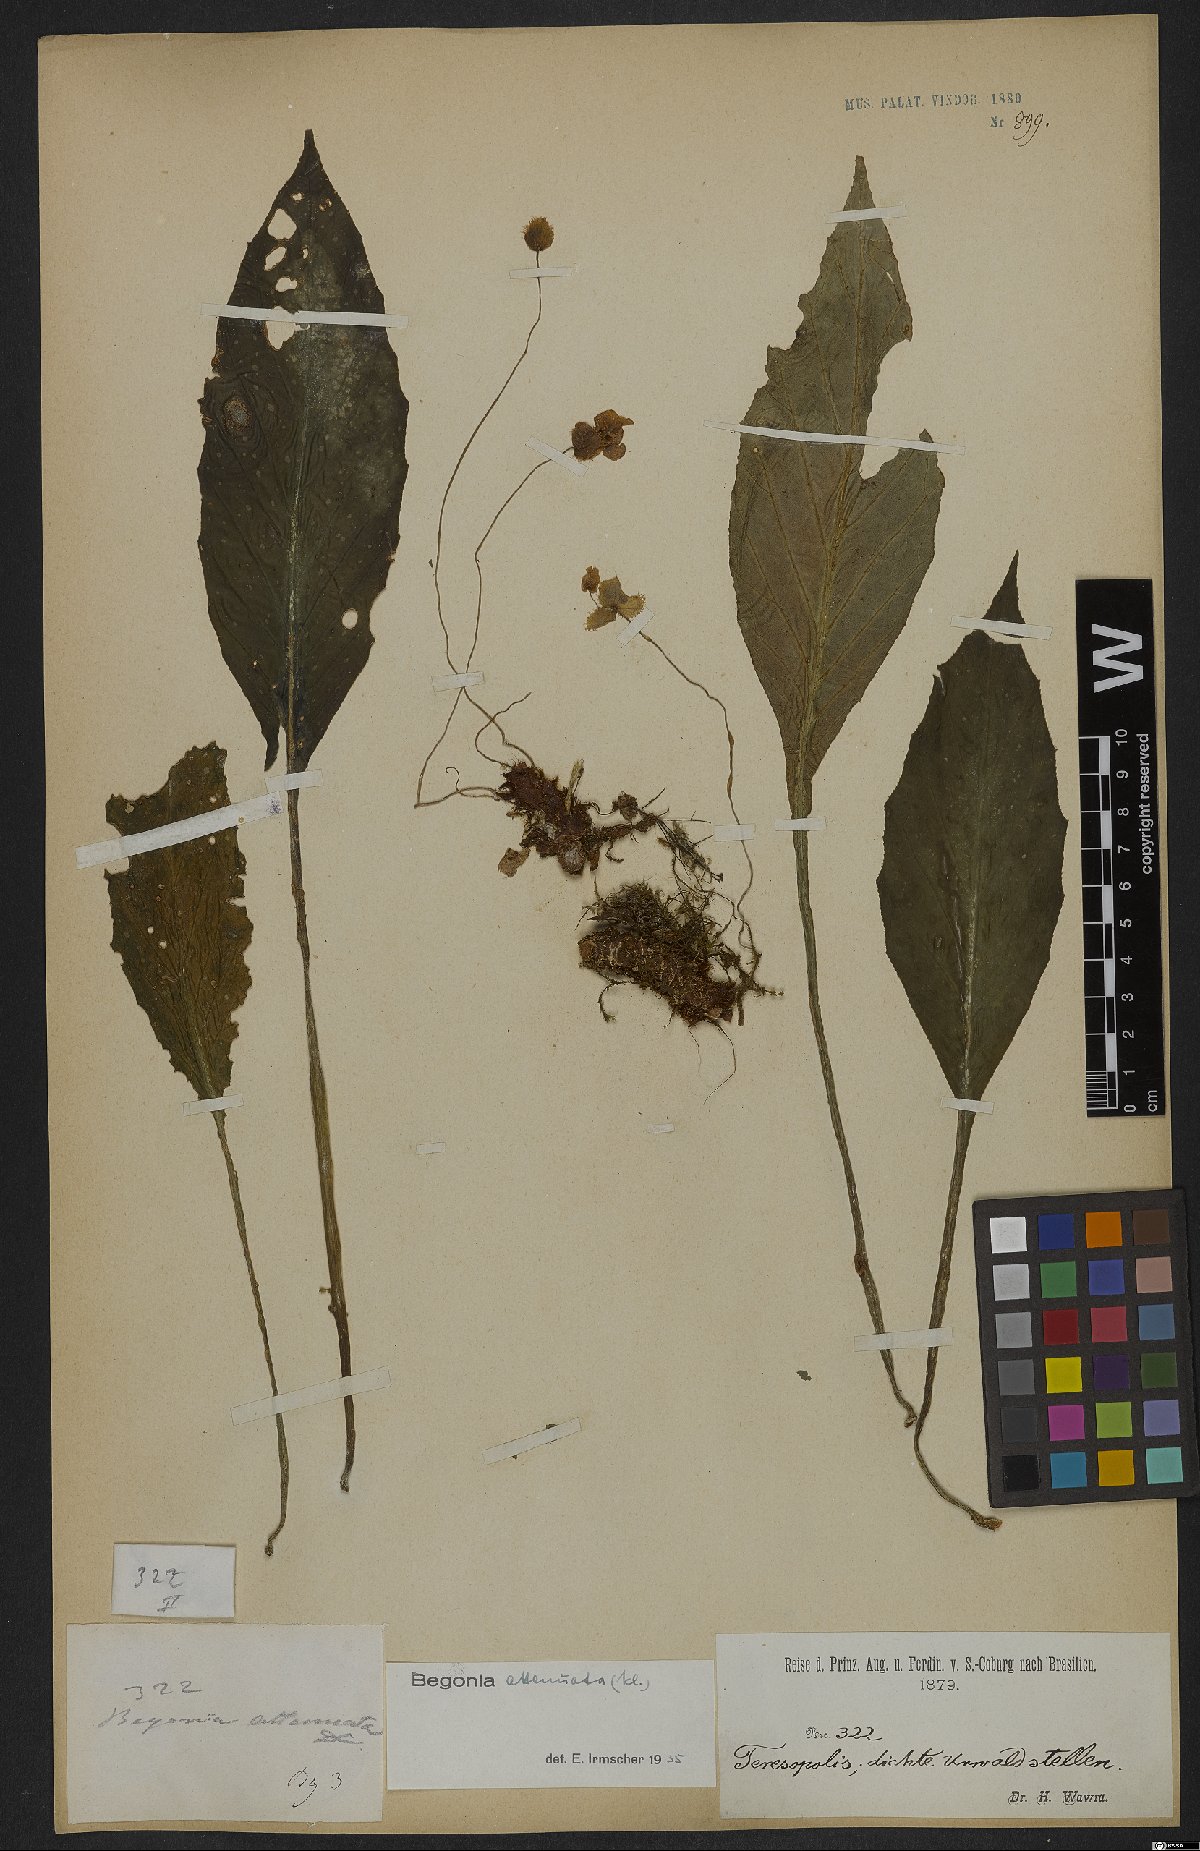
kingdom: Plantae
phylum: Tracheophyta
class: Magnoliopsida
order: Cucurbitales
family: Begoniaceae
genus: Begonia
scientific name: Begonia lanceolata
